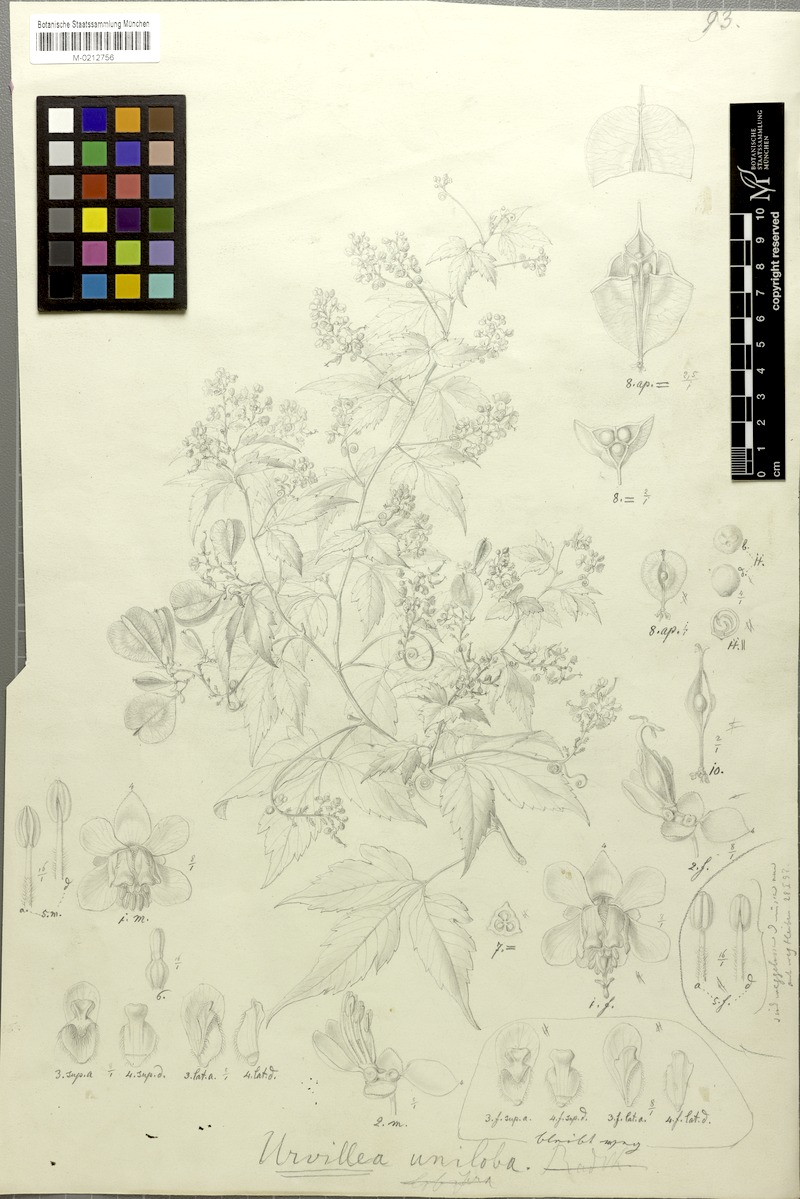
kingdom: Plantae
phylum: Tracheophyta
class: Magnoliopsida
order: Sapindales
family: Sapindaceae
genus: Urvillea
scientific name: Urvillea uniloba
